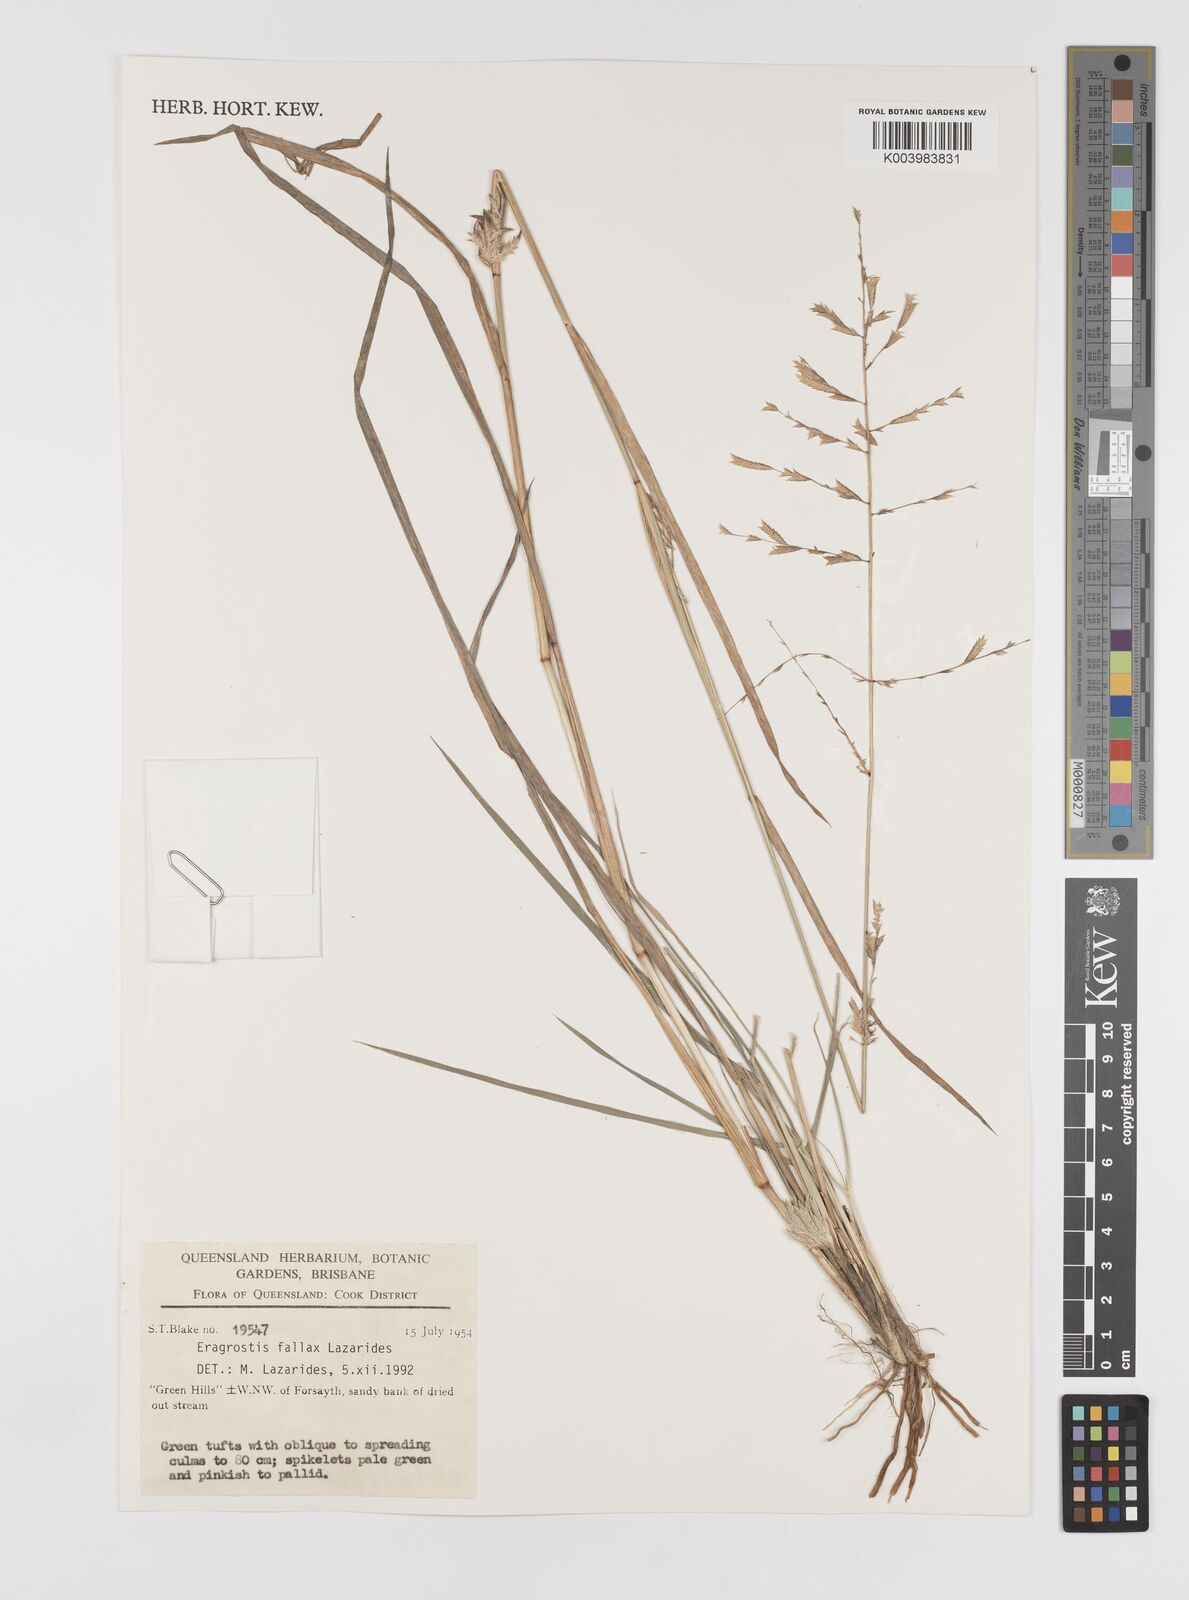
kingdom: Plantae
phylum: Tracheophyta
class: Liliopsida
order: Poales
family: Poaceae
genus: Eragrostis
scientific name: Eragrostis fallax
